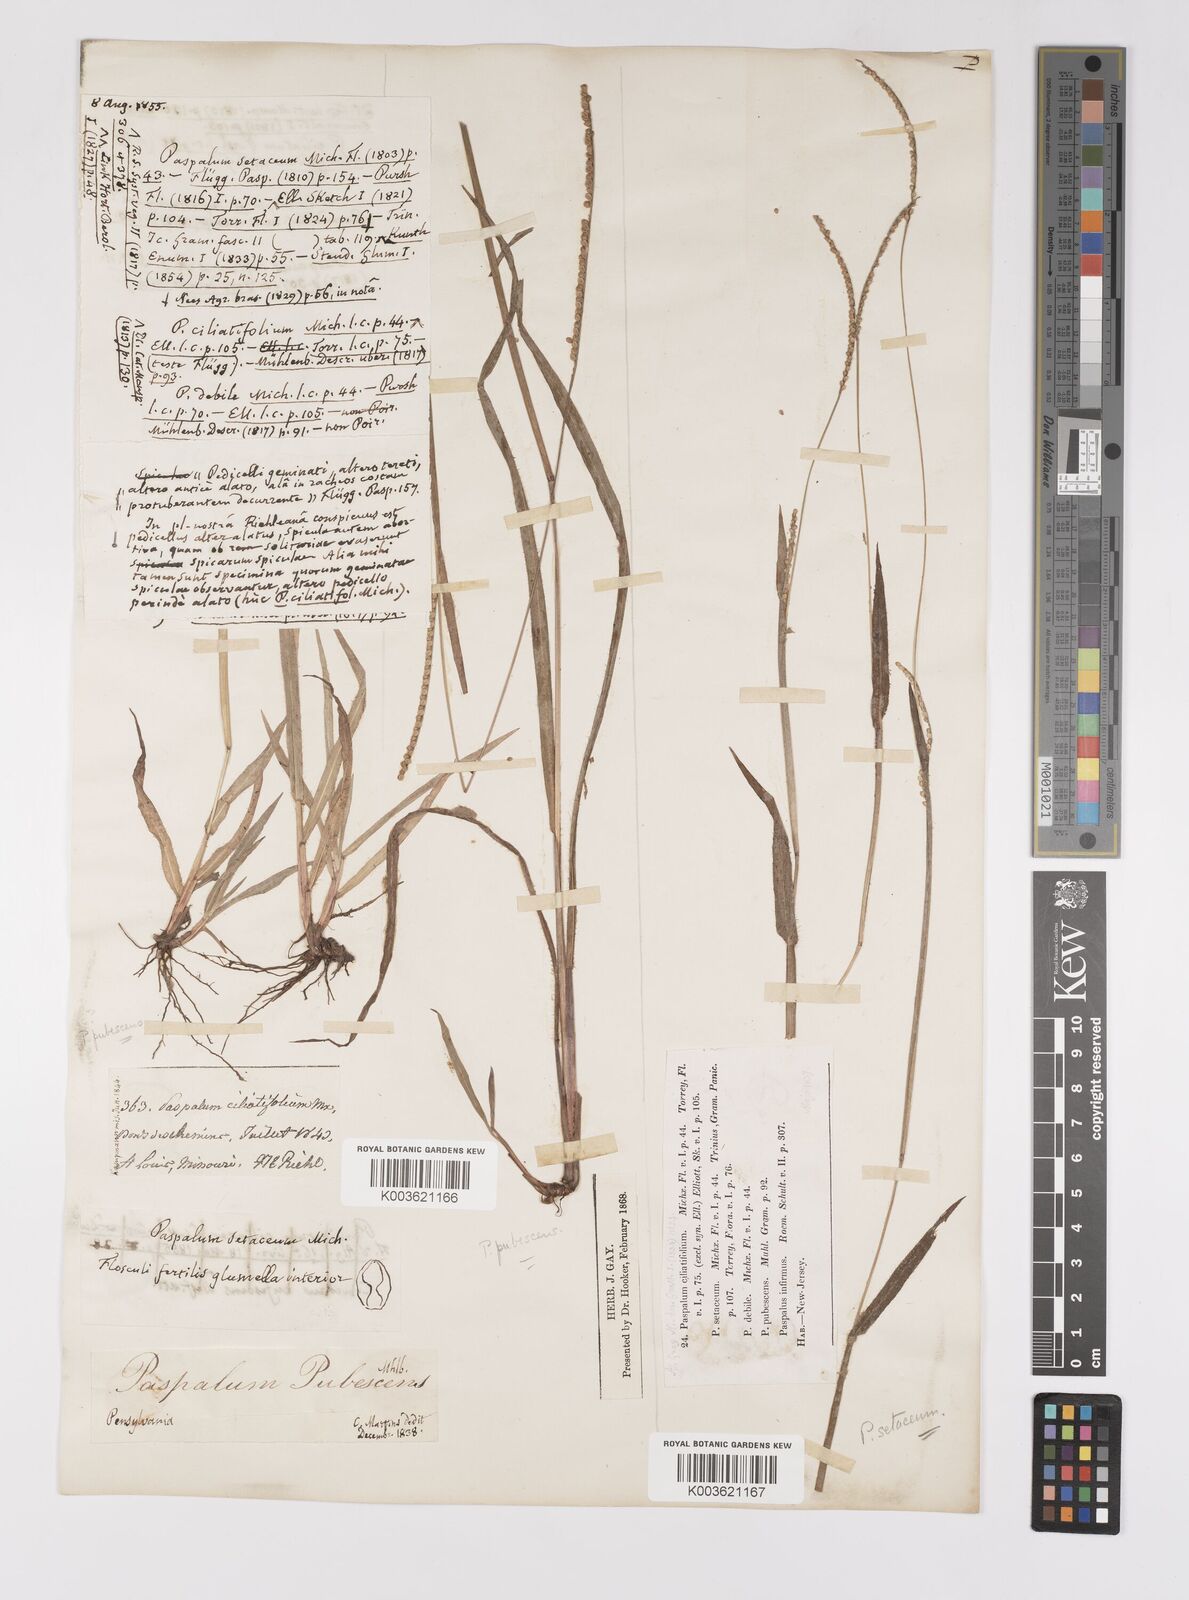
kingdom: Plantae
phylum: Tracheophyta
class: Liliopsida
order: Poales
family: Poaceae
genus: Paspalum
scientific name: Paspalum setaceum
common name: Slender paspalum
